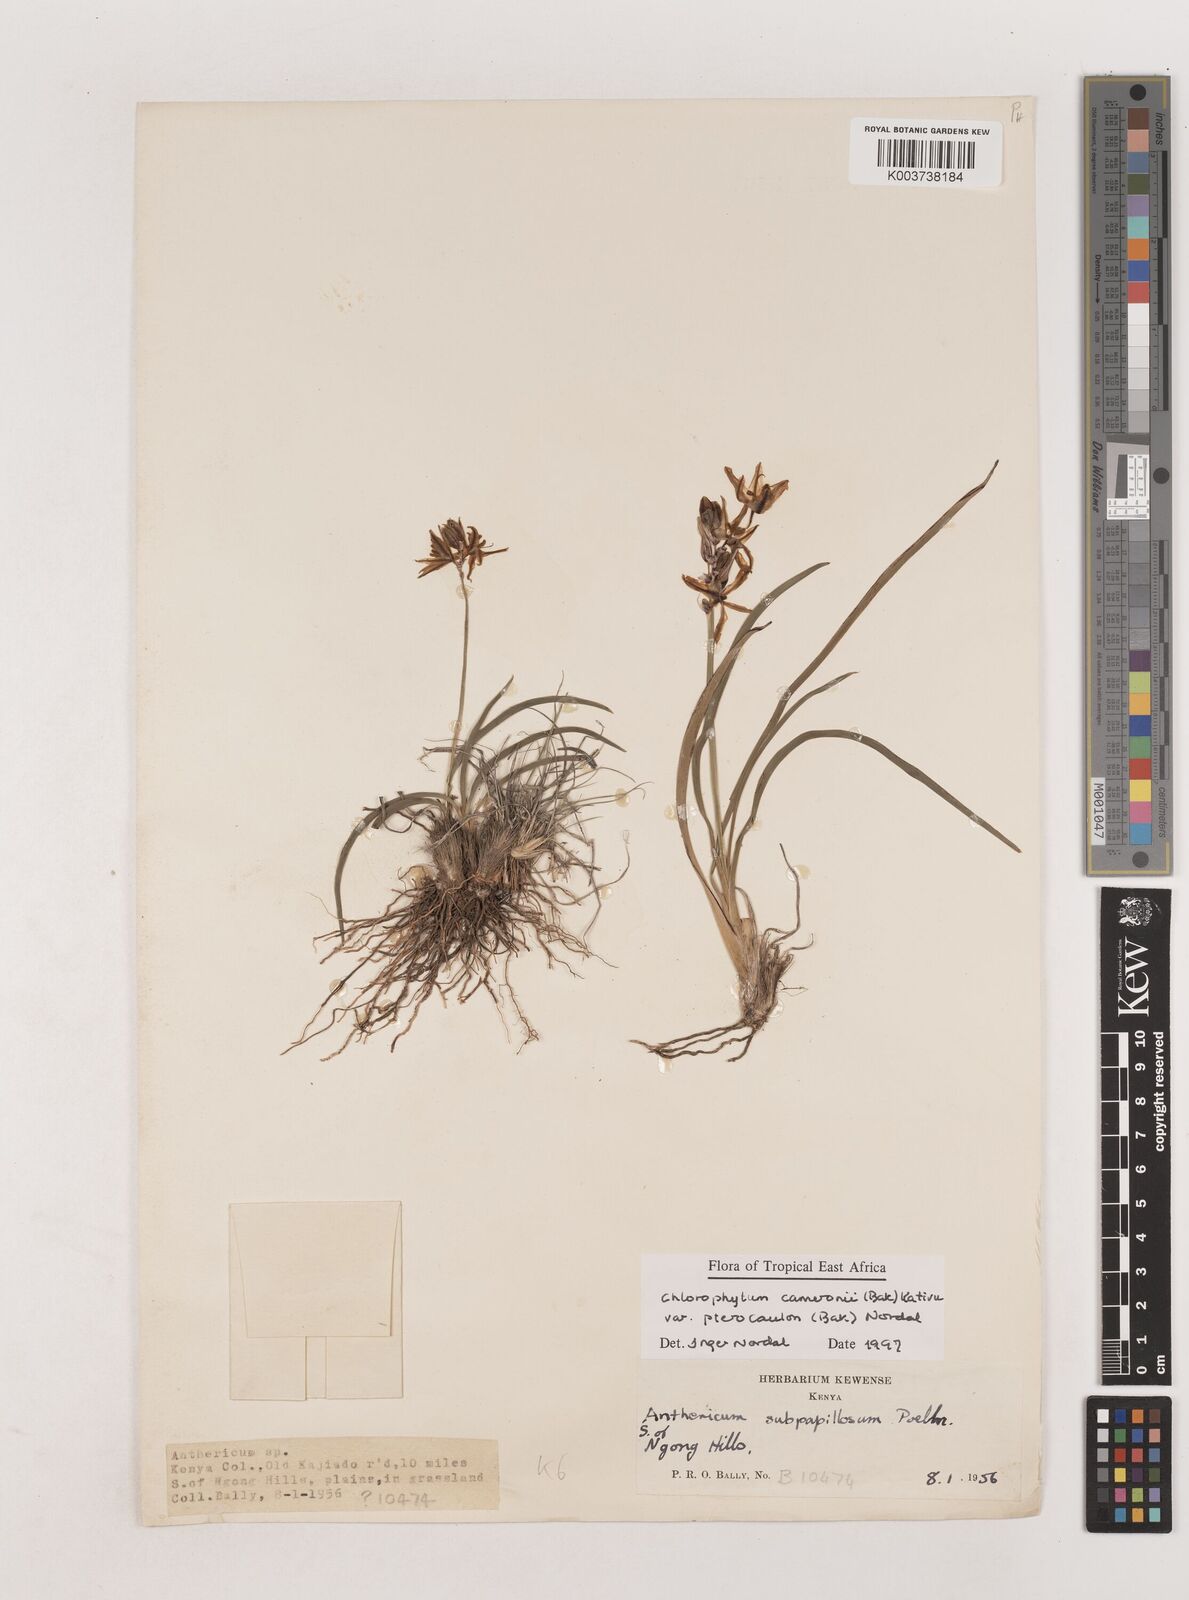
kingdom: Plantae
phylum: Tracheophyta
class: Liliopsida
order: Asparagales
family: Asparagaceae
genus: Chlorophytum
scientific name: Chlorophytum cameronii
